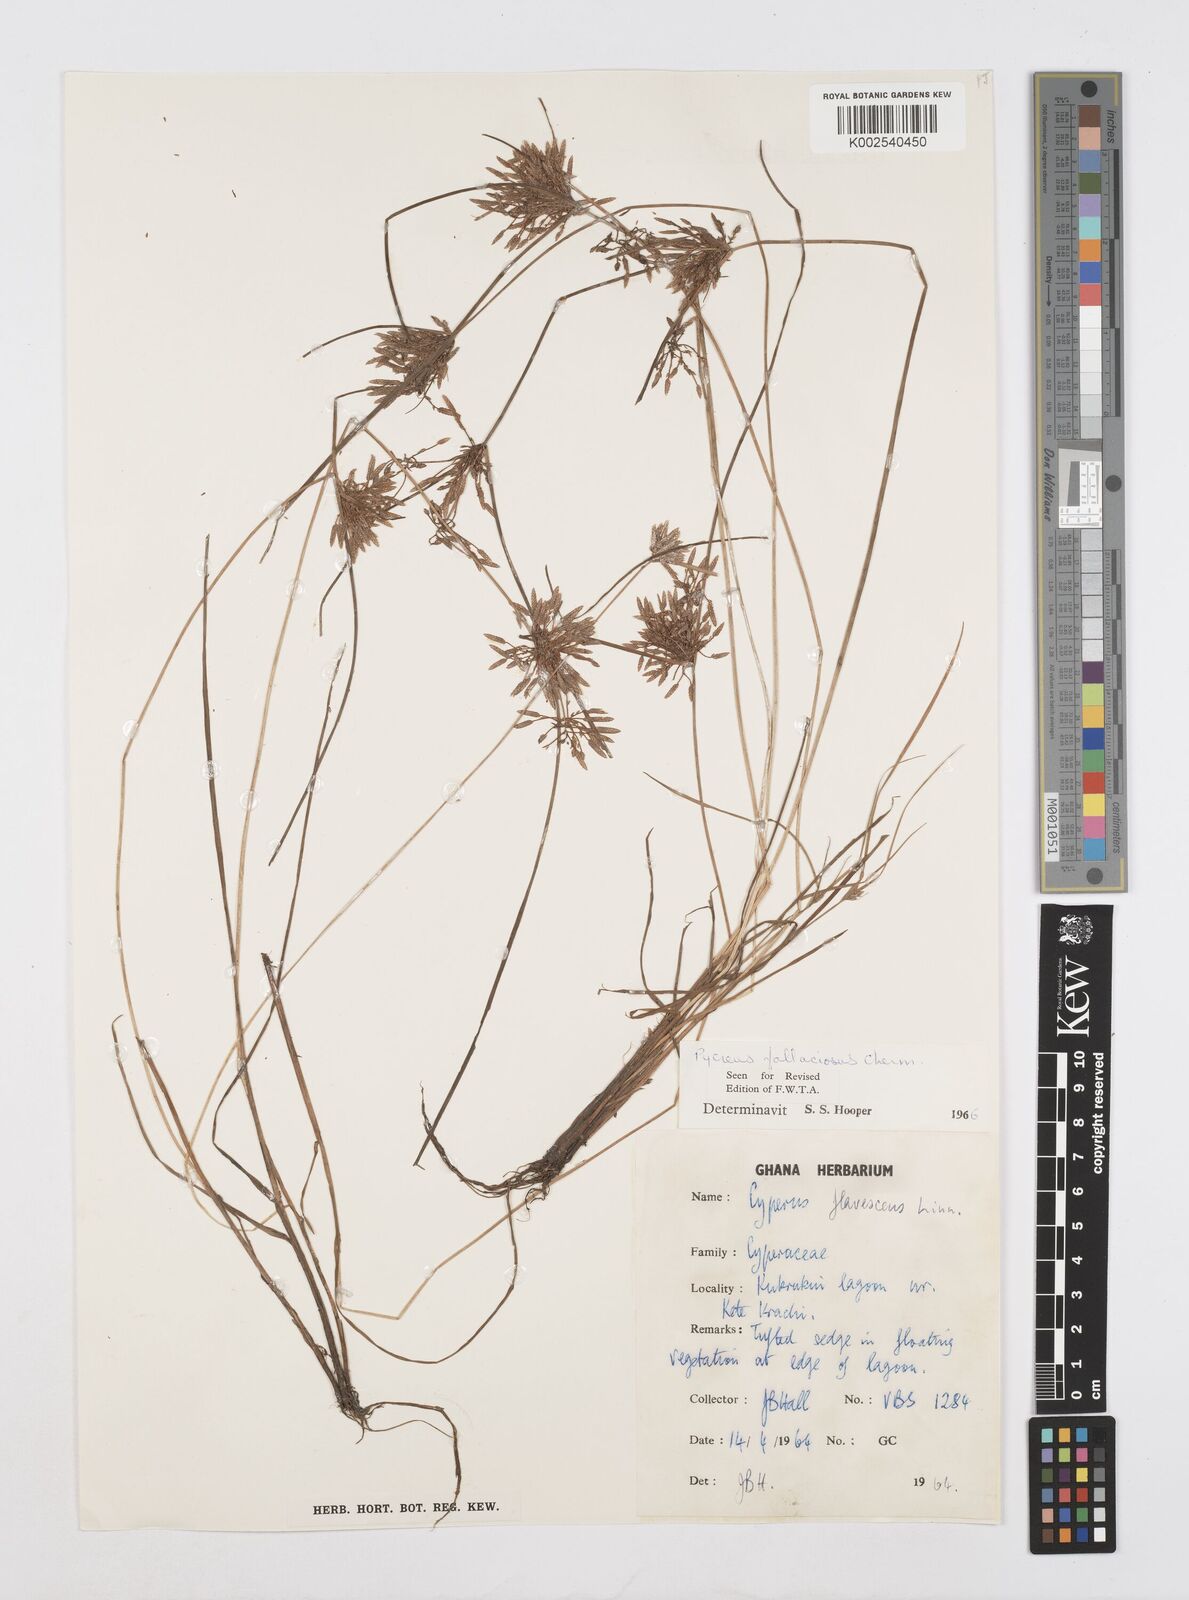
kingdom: Plantae
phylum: Tracheophyta
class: Liliopsida
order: Poales
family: Cyperaceae
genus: Cyperus
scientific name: Cyperus flavescens
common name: Yellow galingale
